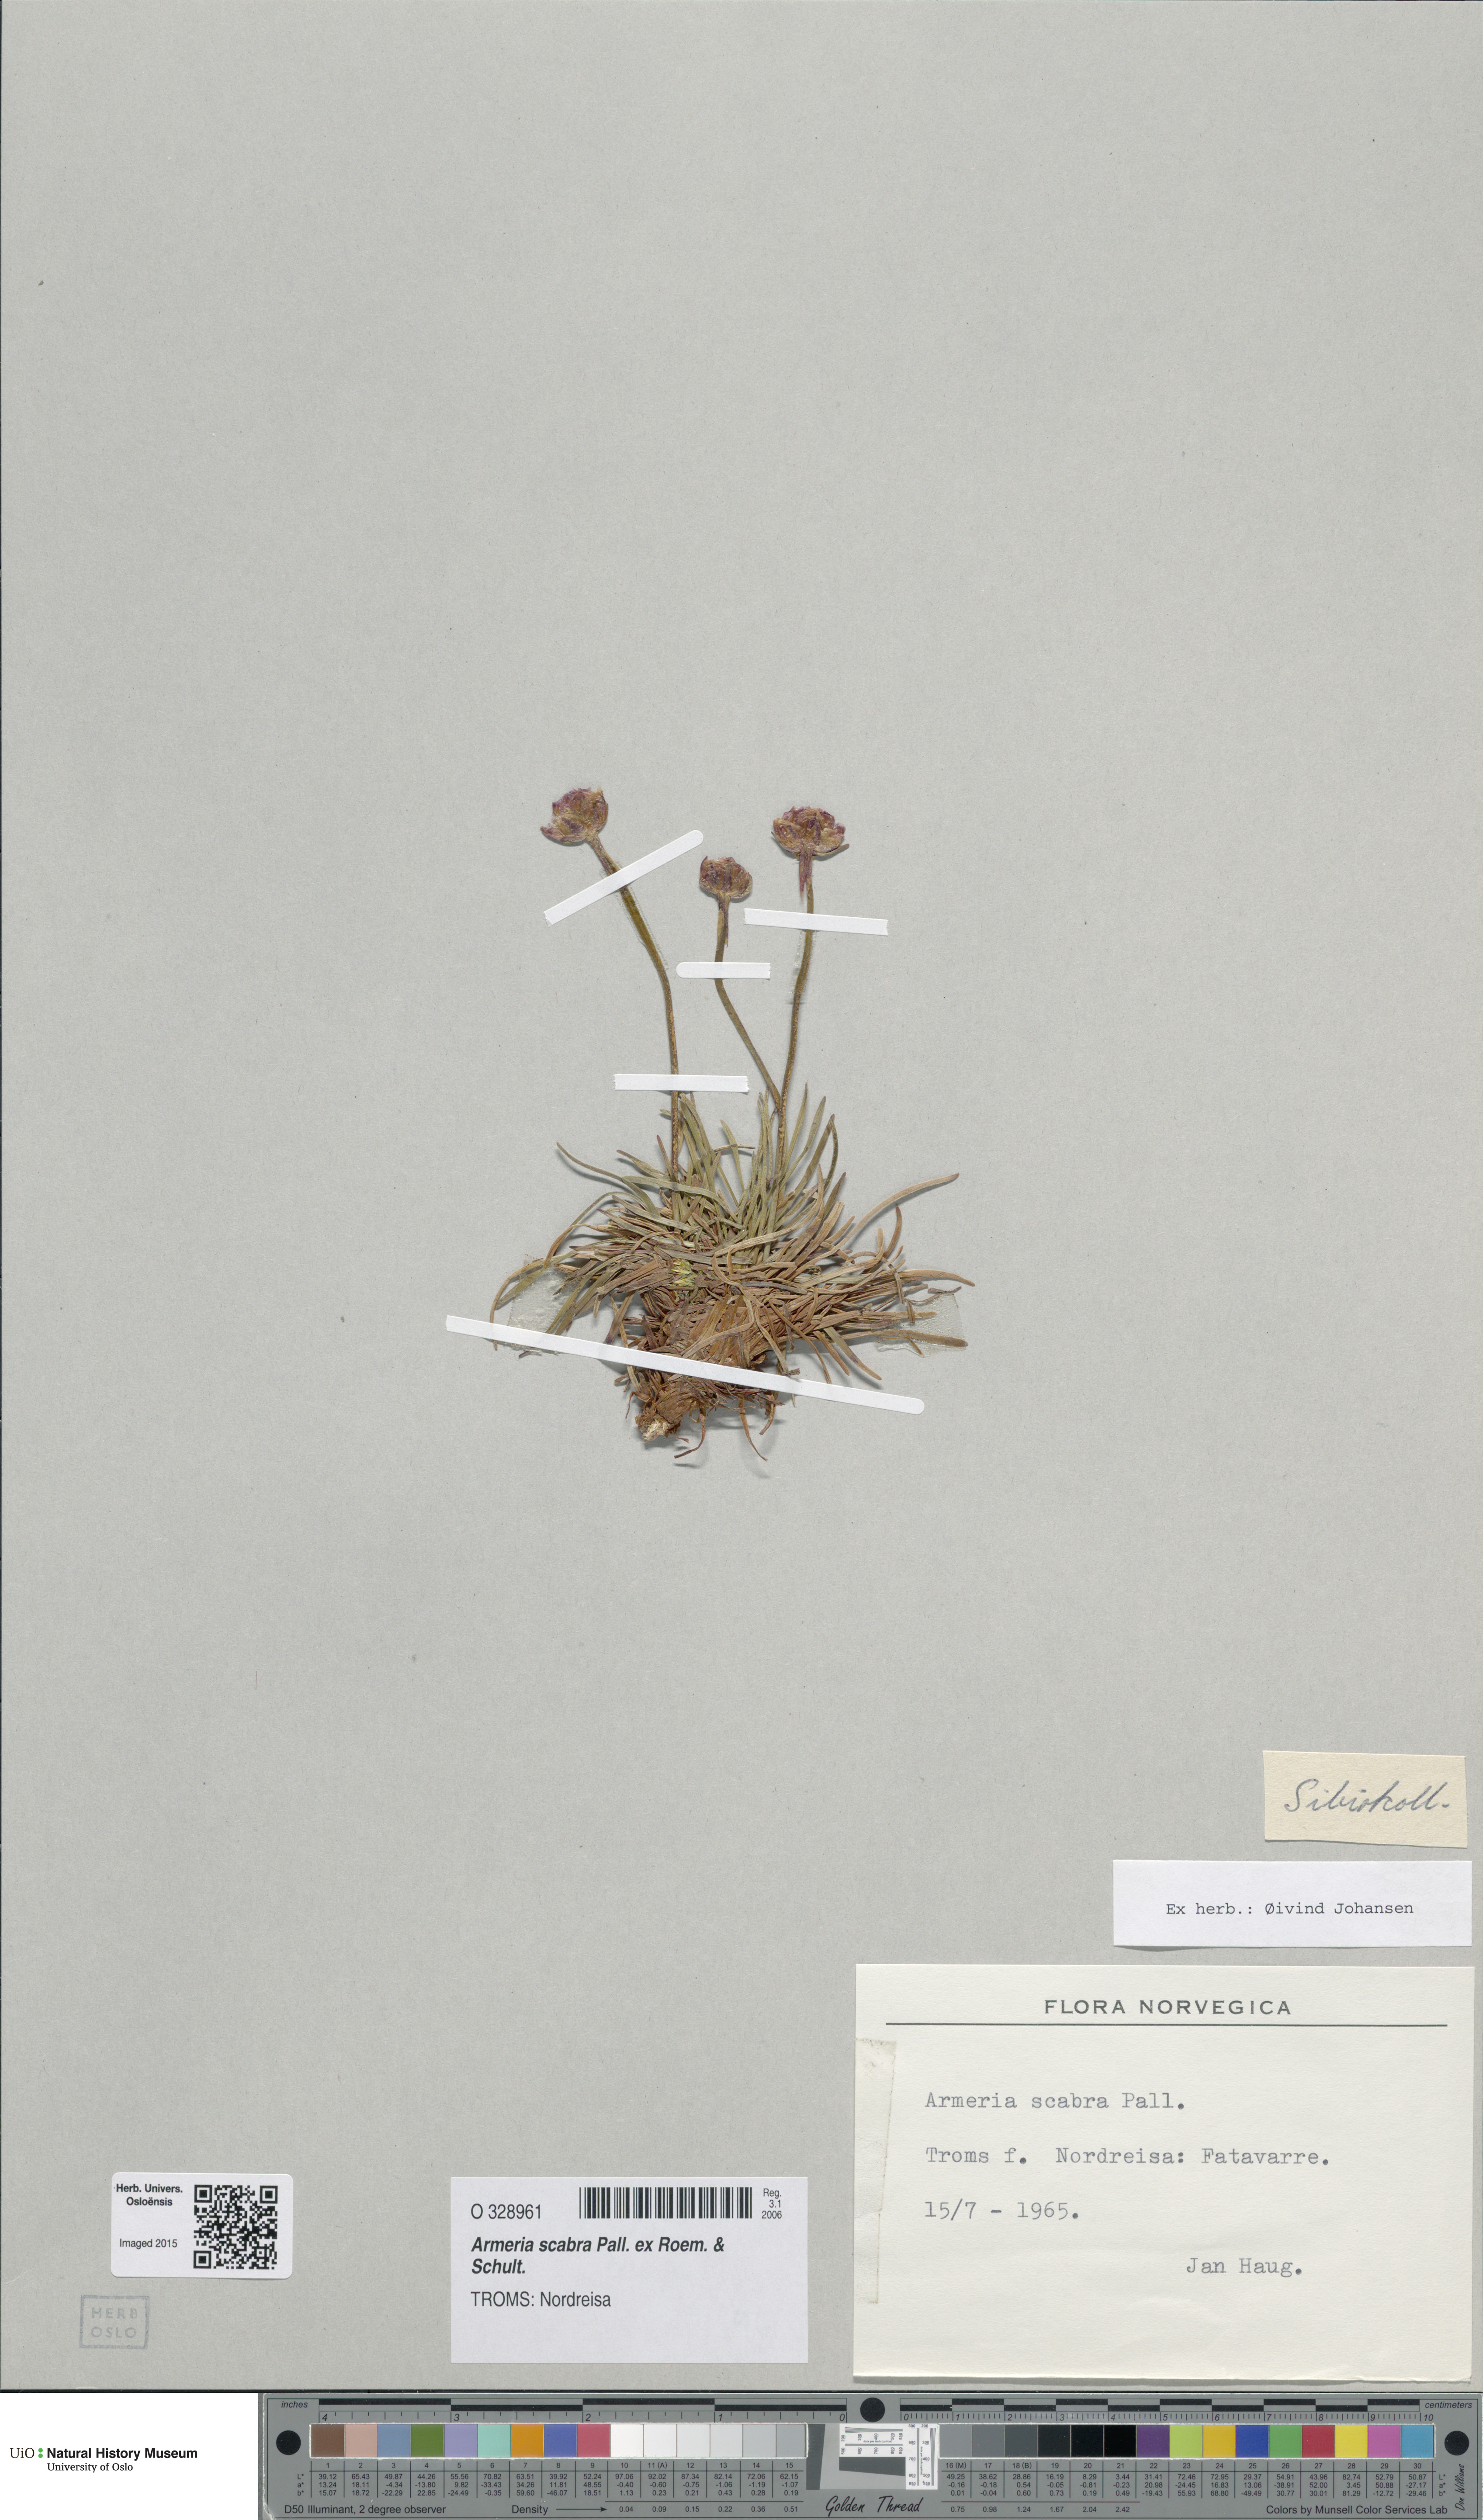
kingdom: Plantae
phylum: Tracheophyta
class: Magnoliopsida
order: Caryophyllales
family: Plumbaginaceae
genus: Armeria
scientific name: Armeria maritima
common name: Thrift
